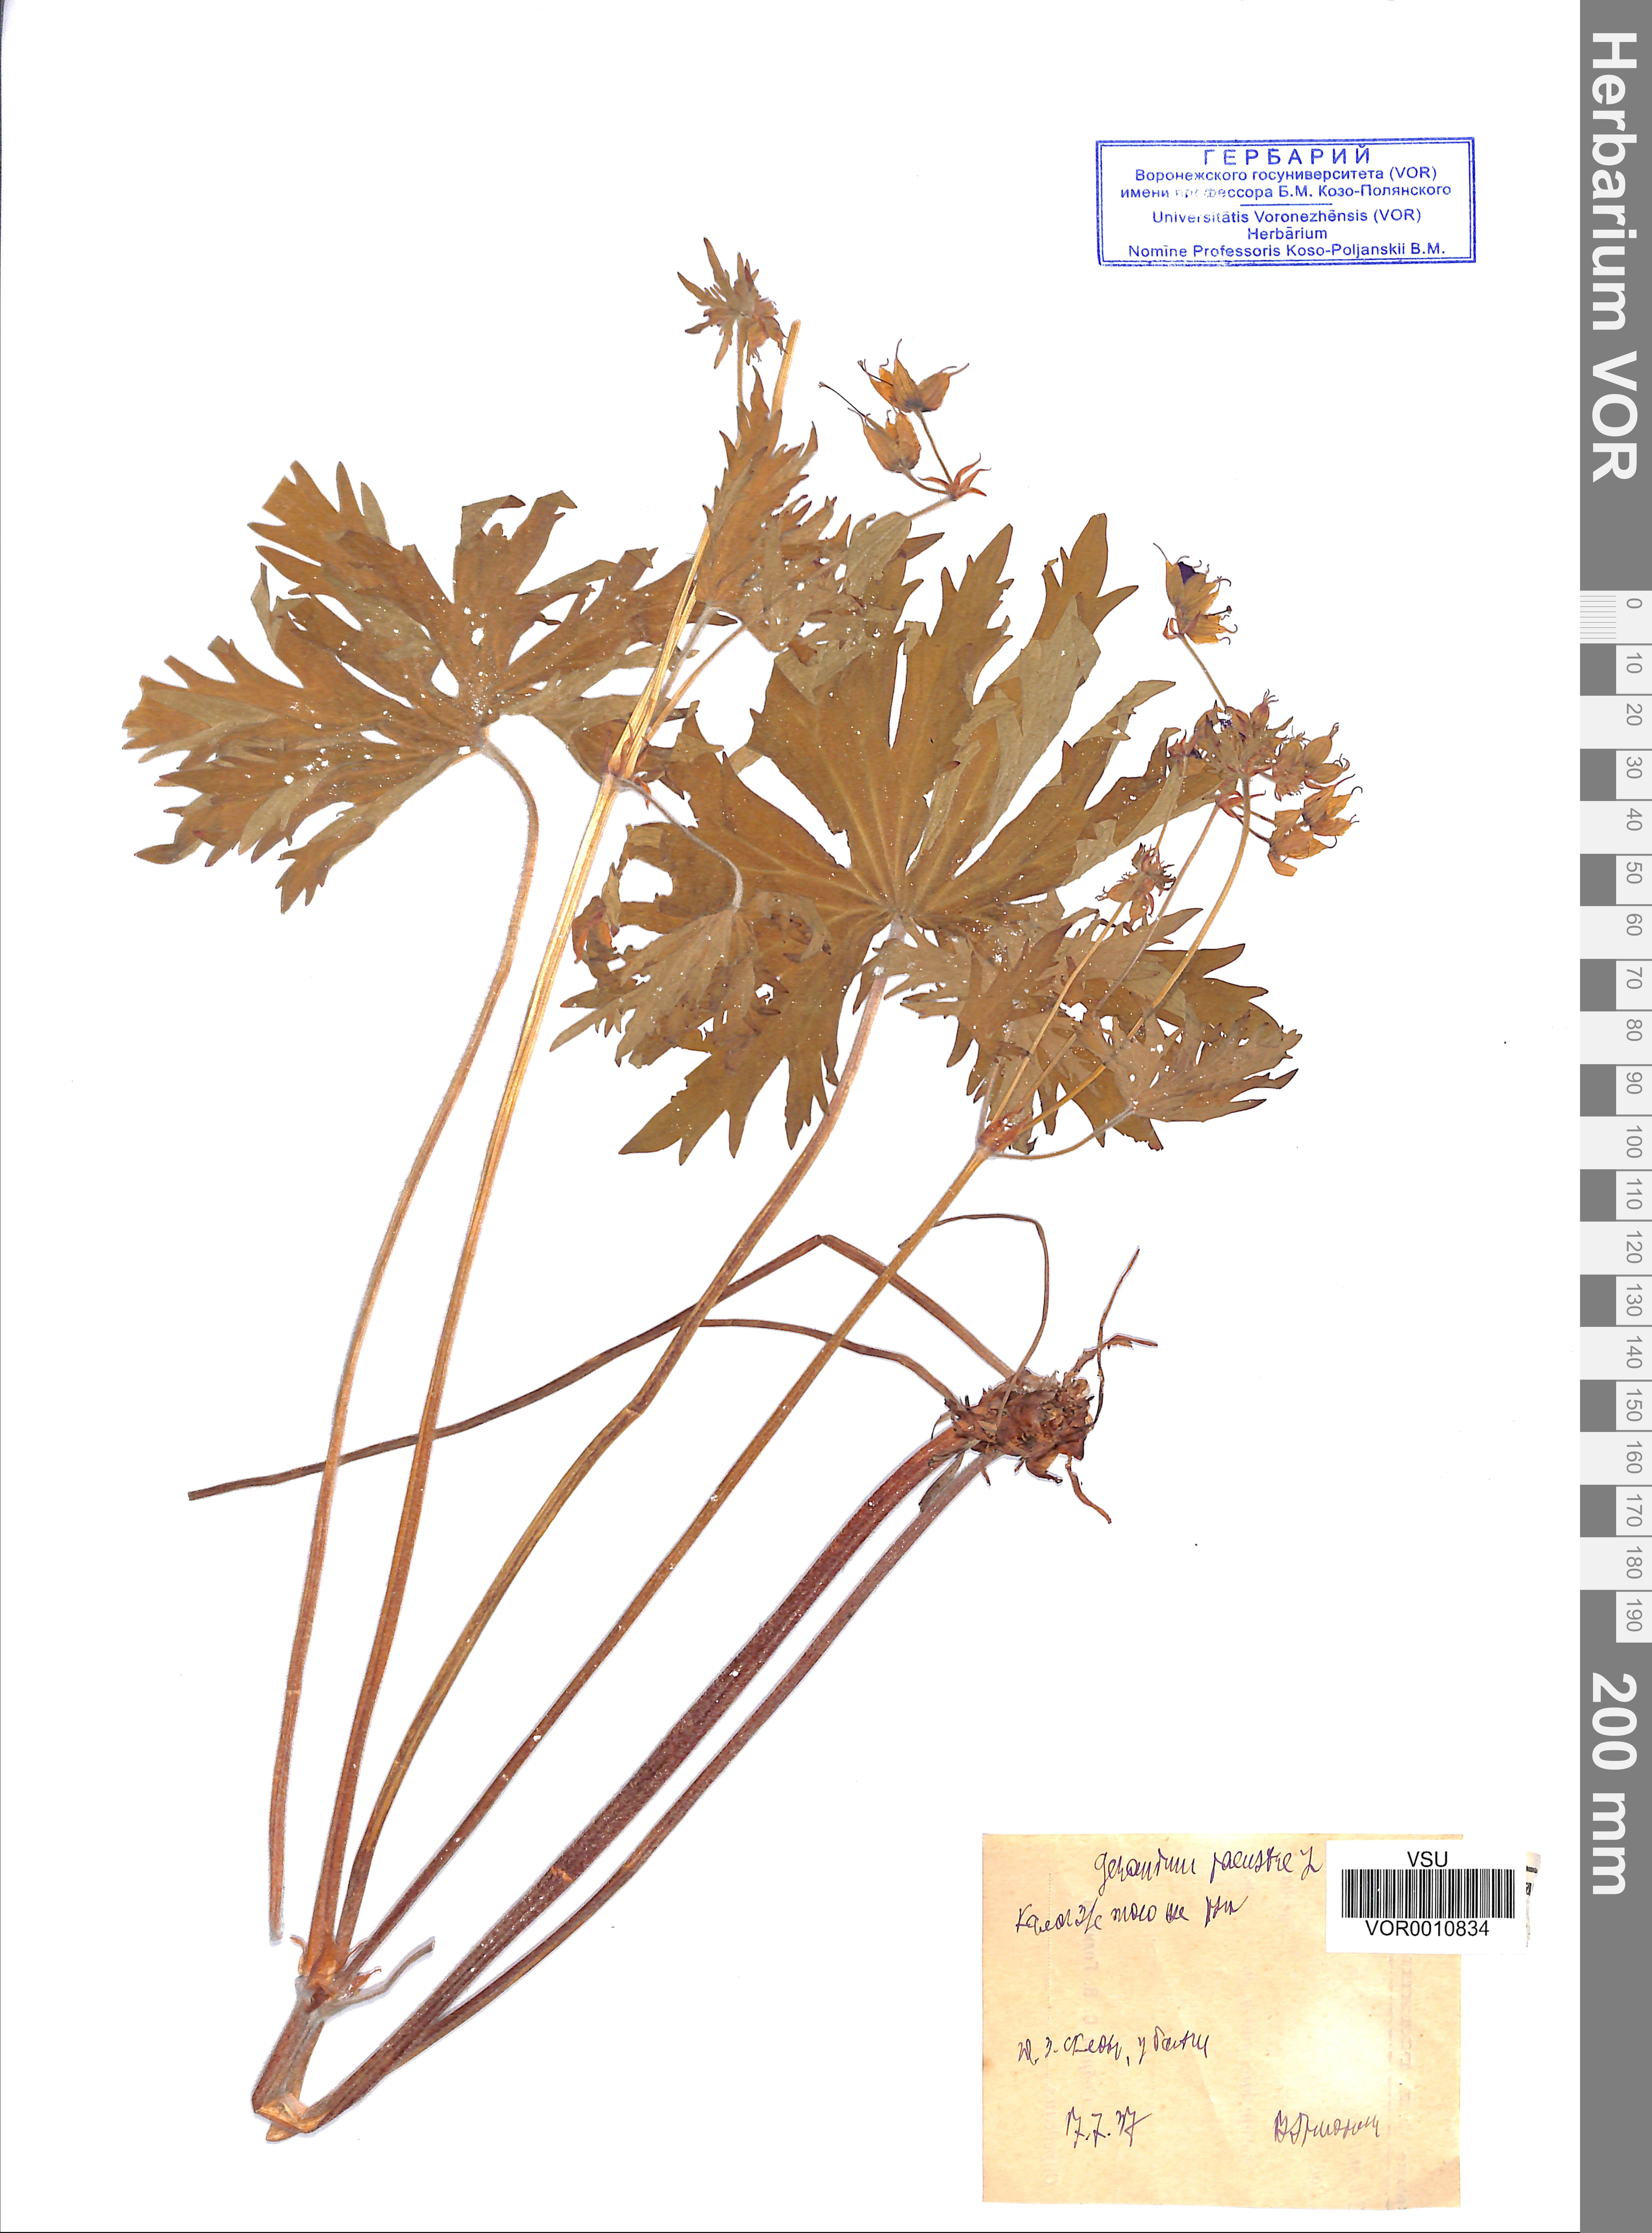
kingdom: Plantae
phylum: Tracheophyta
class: Magnoliopsida
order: Geraniales
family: Geraniaceae
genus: Geranium
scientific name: Geranium palustre
